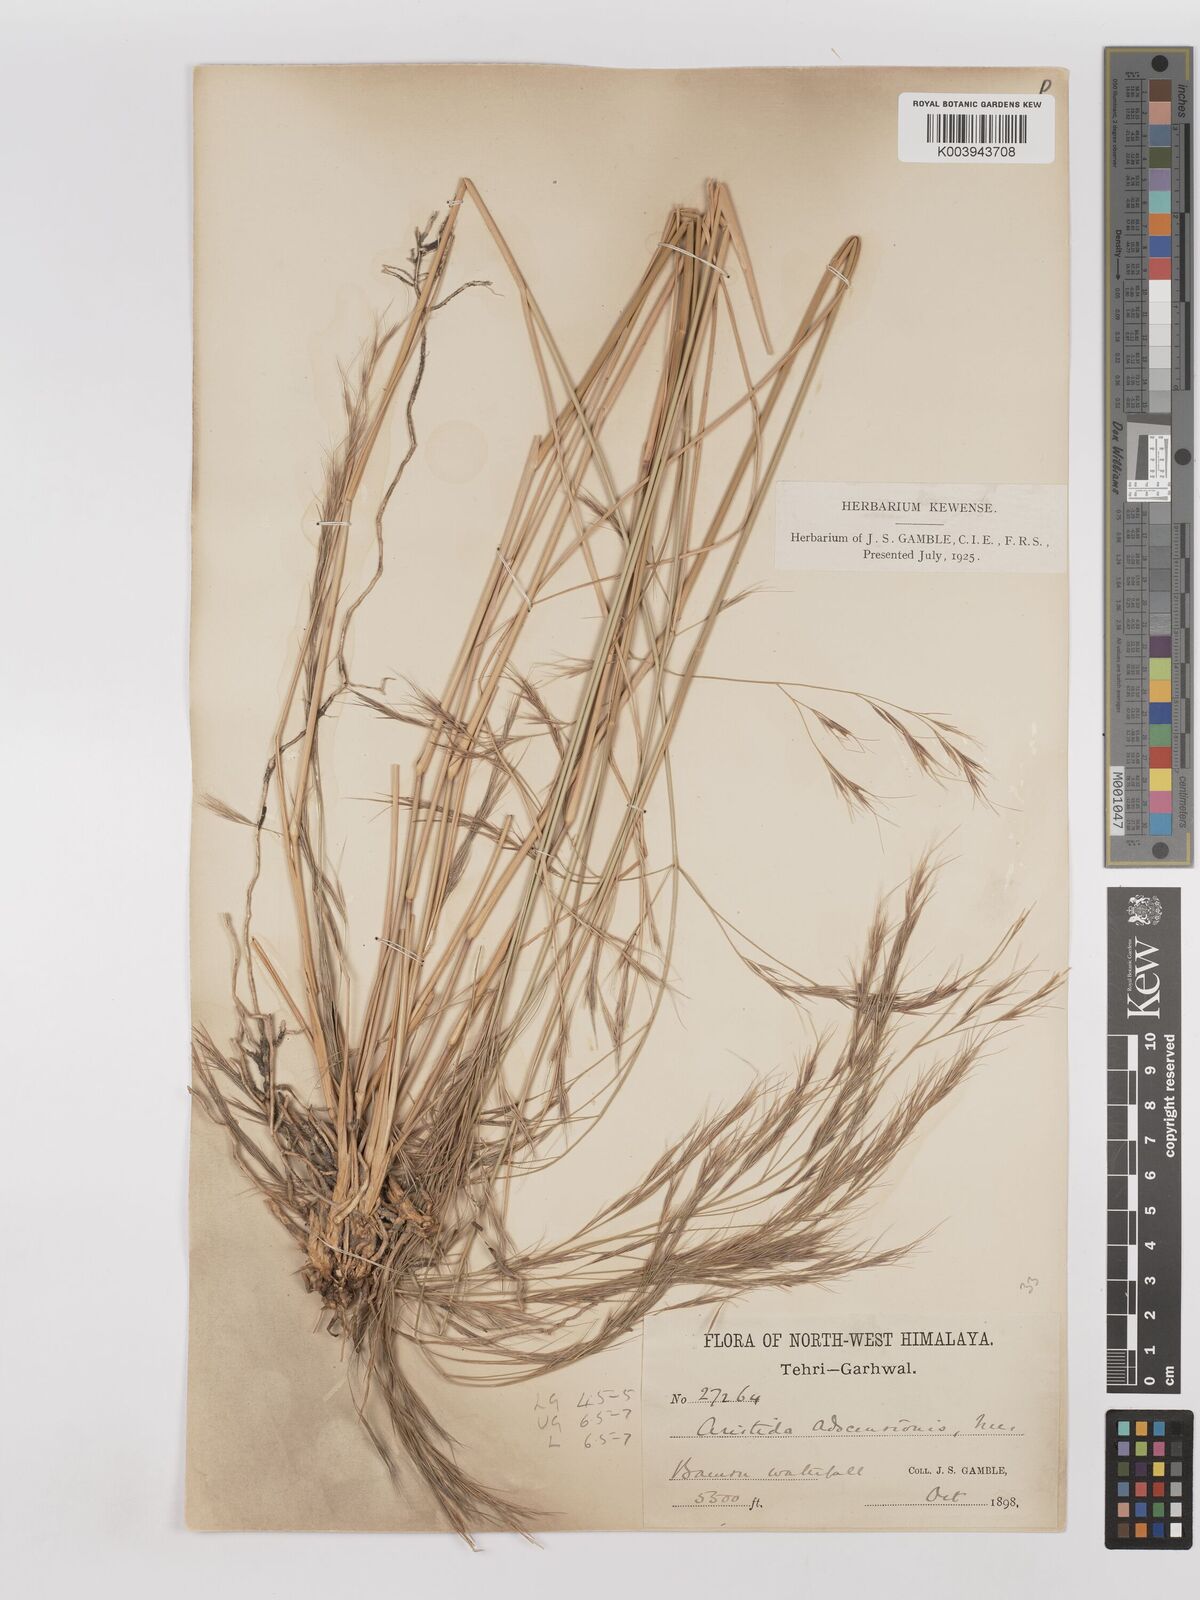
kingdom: Plantae
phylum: Tracheophyta
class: Liliopsida
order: Poales
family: Poaceae
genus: Aristida
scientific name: Aristida adscensionis
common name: Sixweeks threeawn
